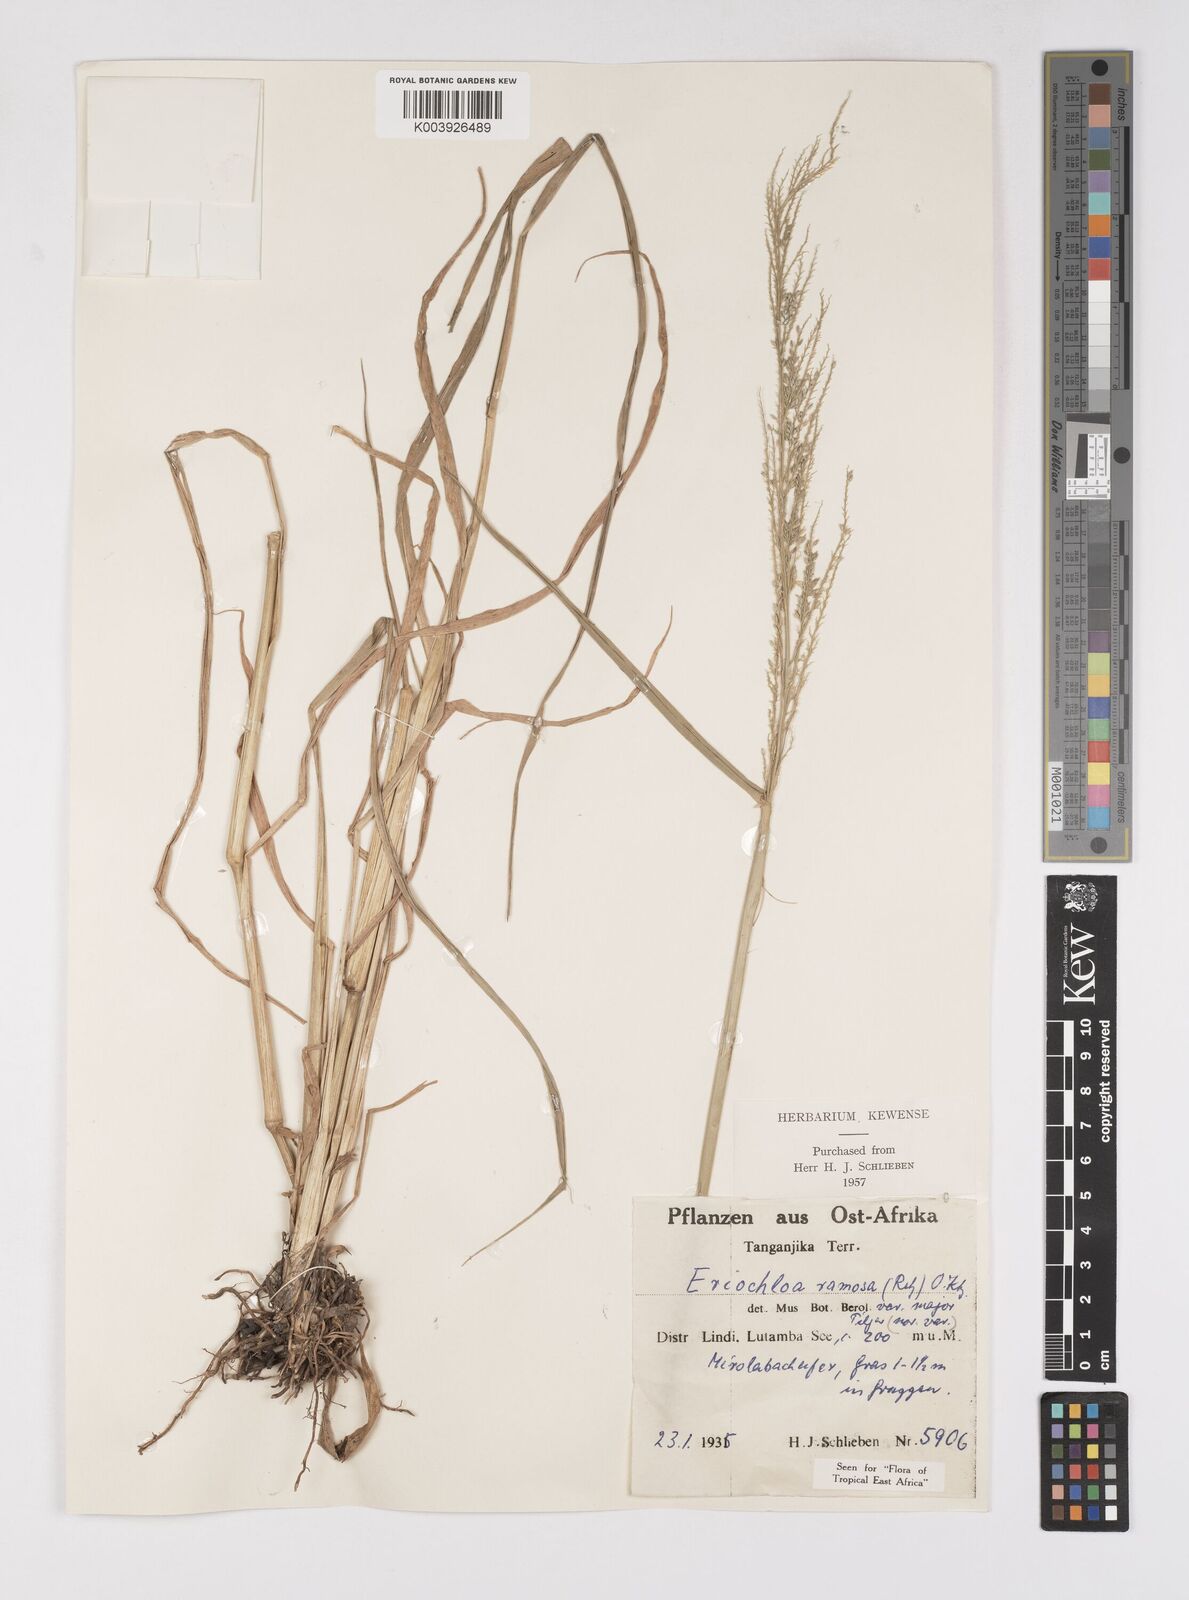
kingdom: Plantae
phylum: Tracheophyta
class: Liliopsida
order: Poales
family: Poaceae
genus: Eriochloa
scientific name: Eriochloa procera
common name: Spring grass
